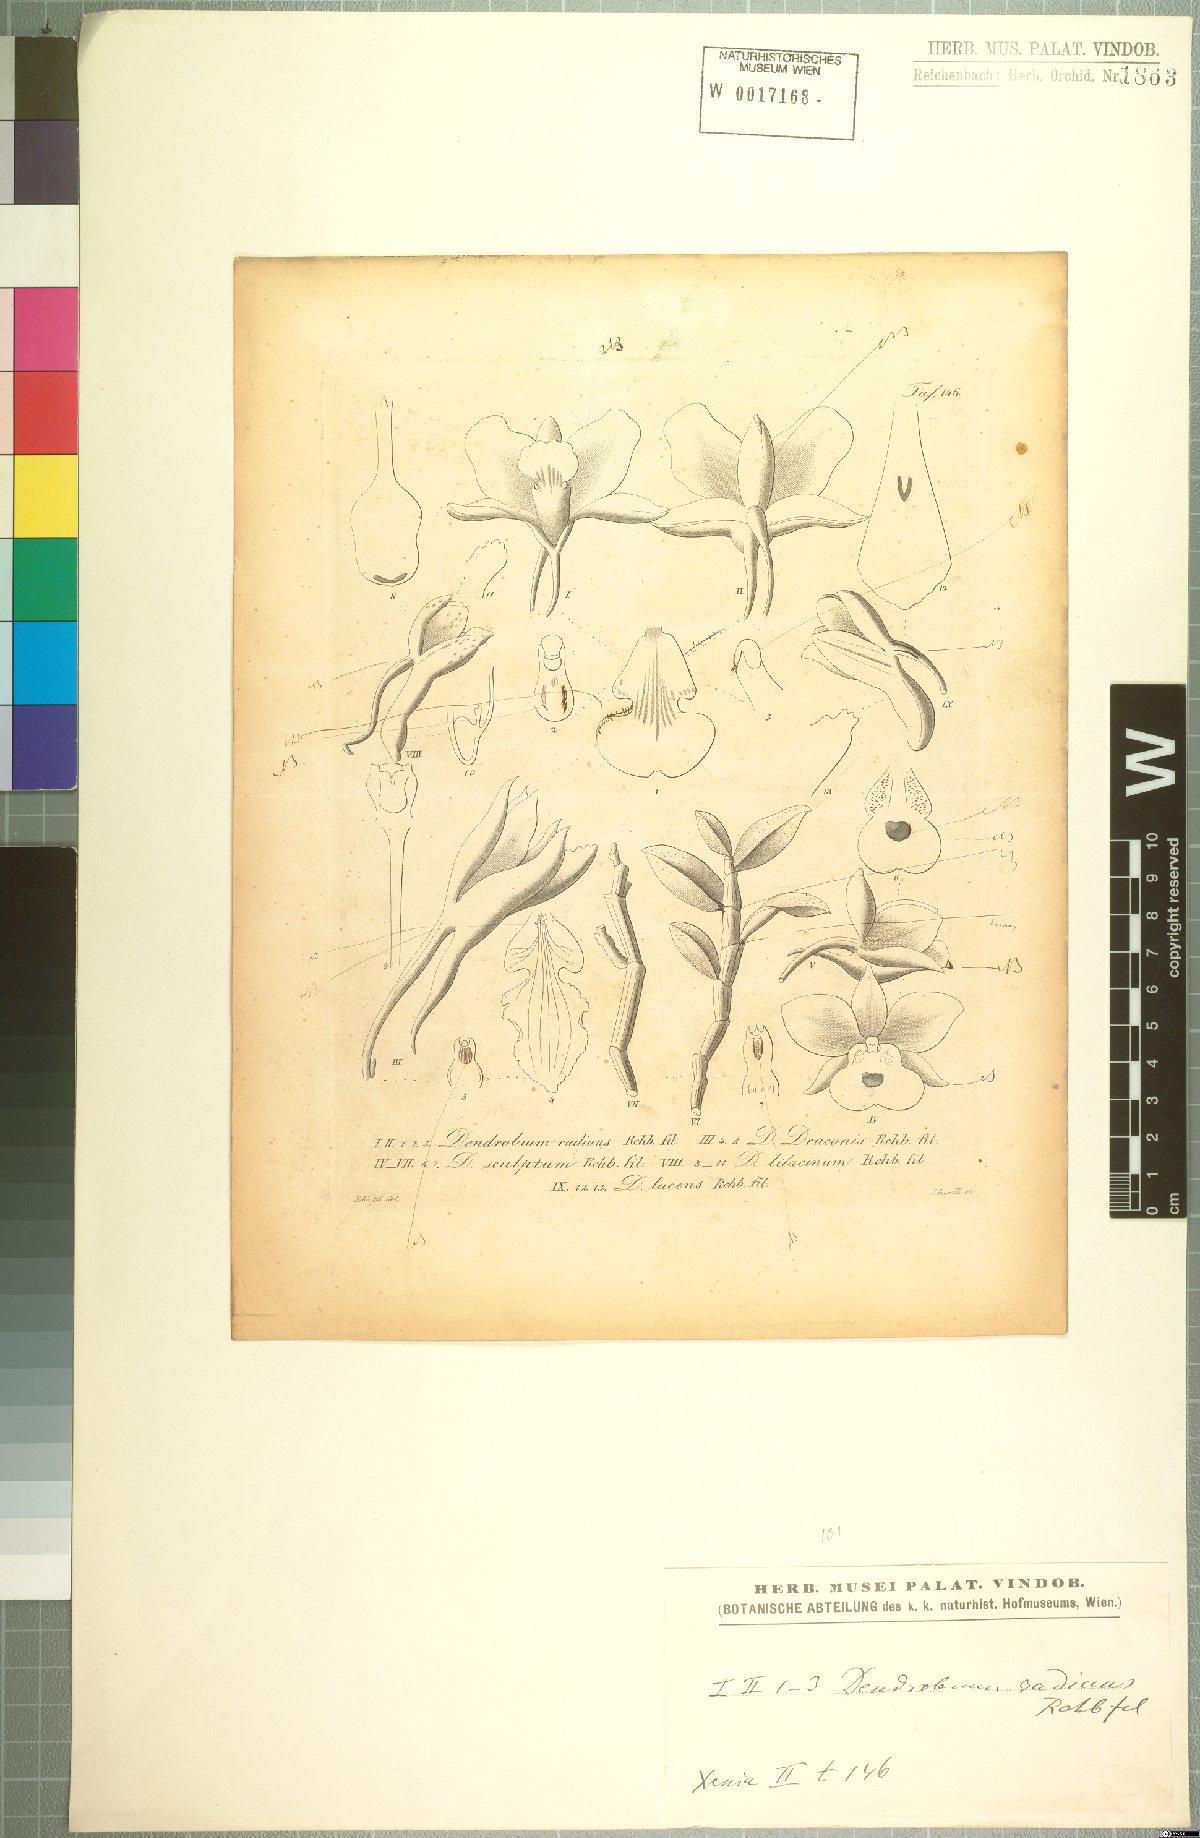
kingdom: Plantae
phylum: Tracheophyta
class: Liliopsida
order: Asparagales
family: Orchidaceae
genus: Dendrobium
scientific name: Dendrobium radians
